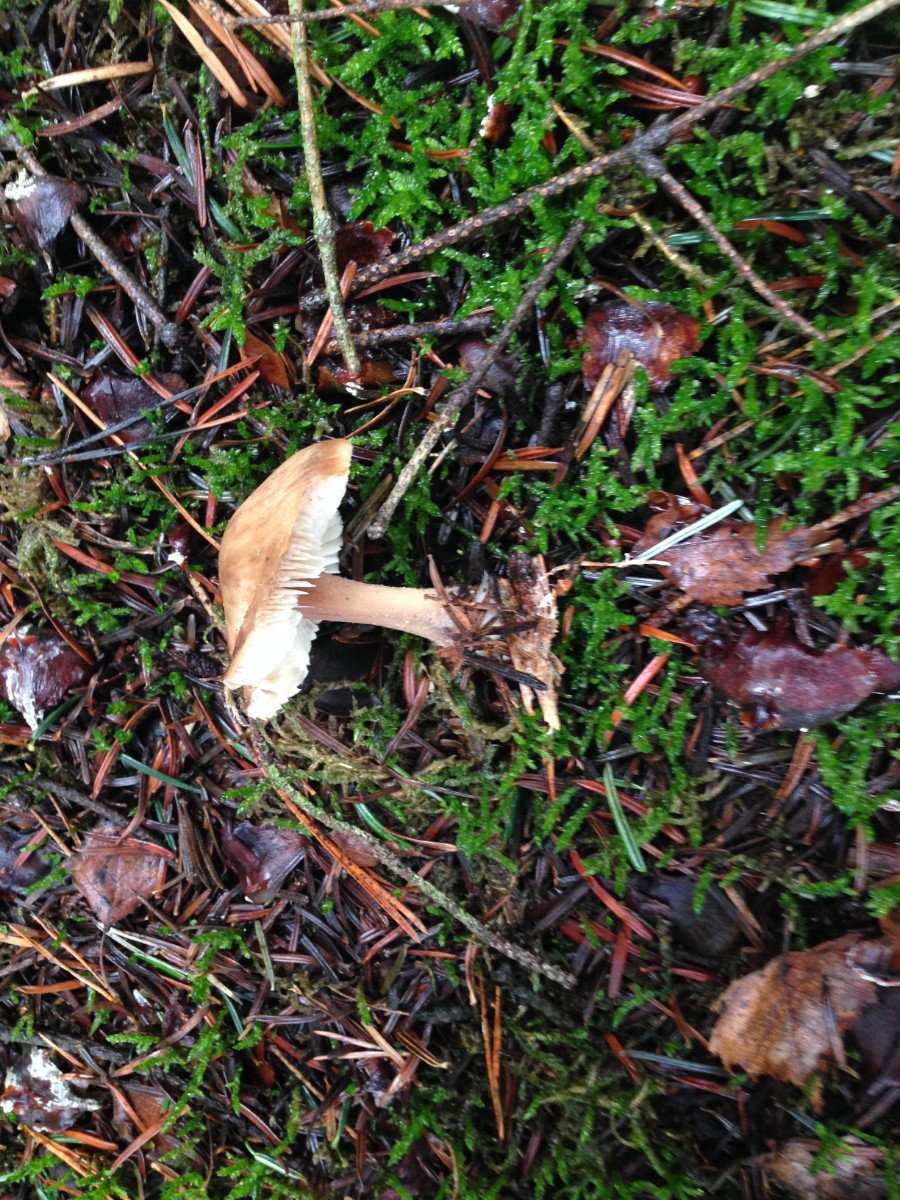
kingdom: Fungi
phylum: Basidiomycota
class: Agaricomycetes
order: Agaricales
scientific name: Agaricales
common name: champignonordenen
